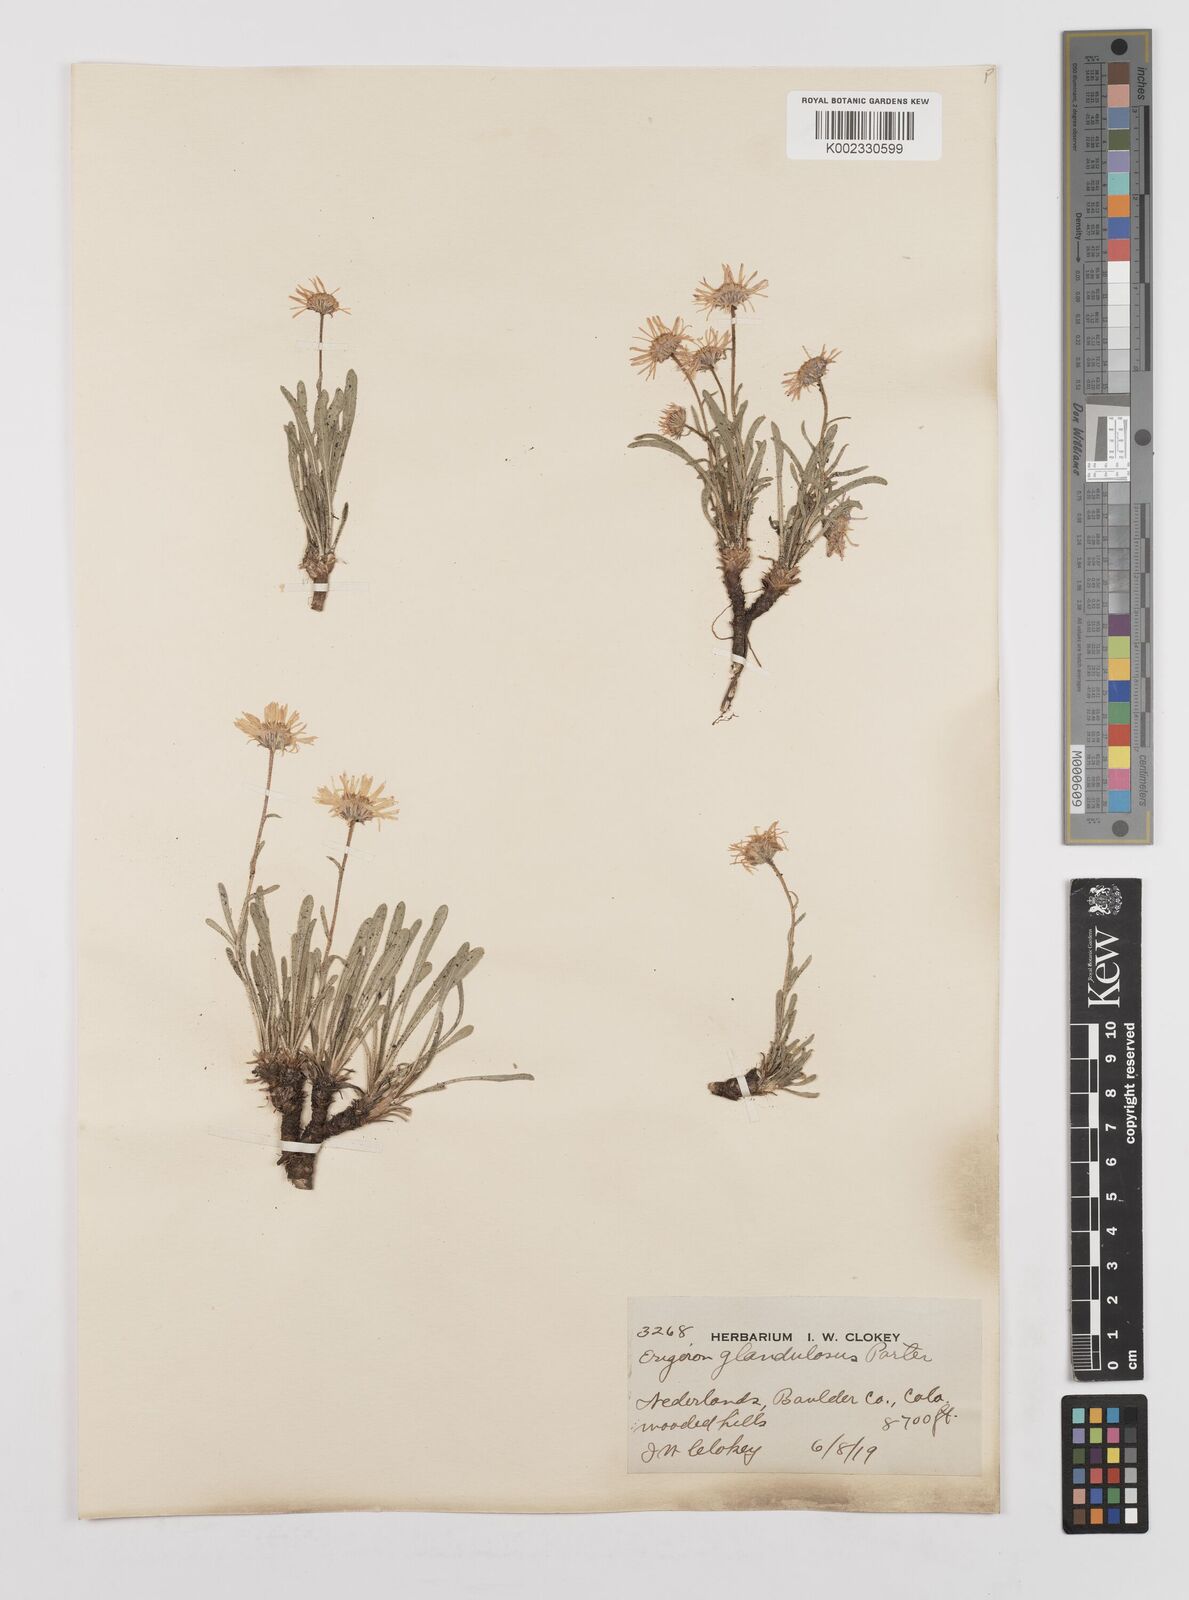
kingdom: Plantae
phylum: Tracheophyta
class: Magnoliopsida
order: Asterales
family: Asteraceae
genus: Erigeron
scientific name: Erigeron vetensis
